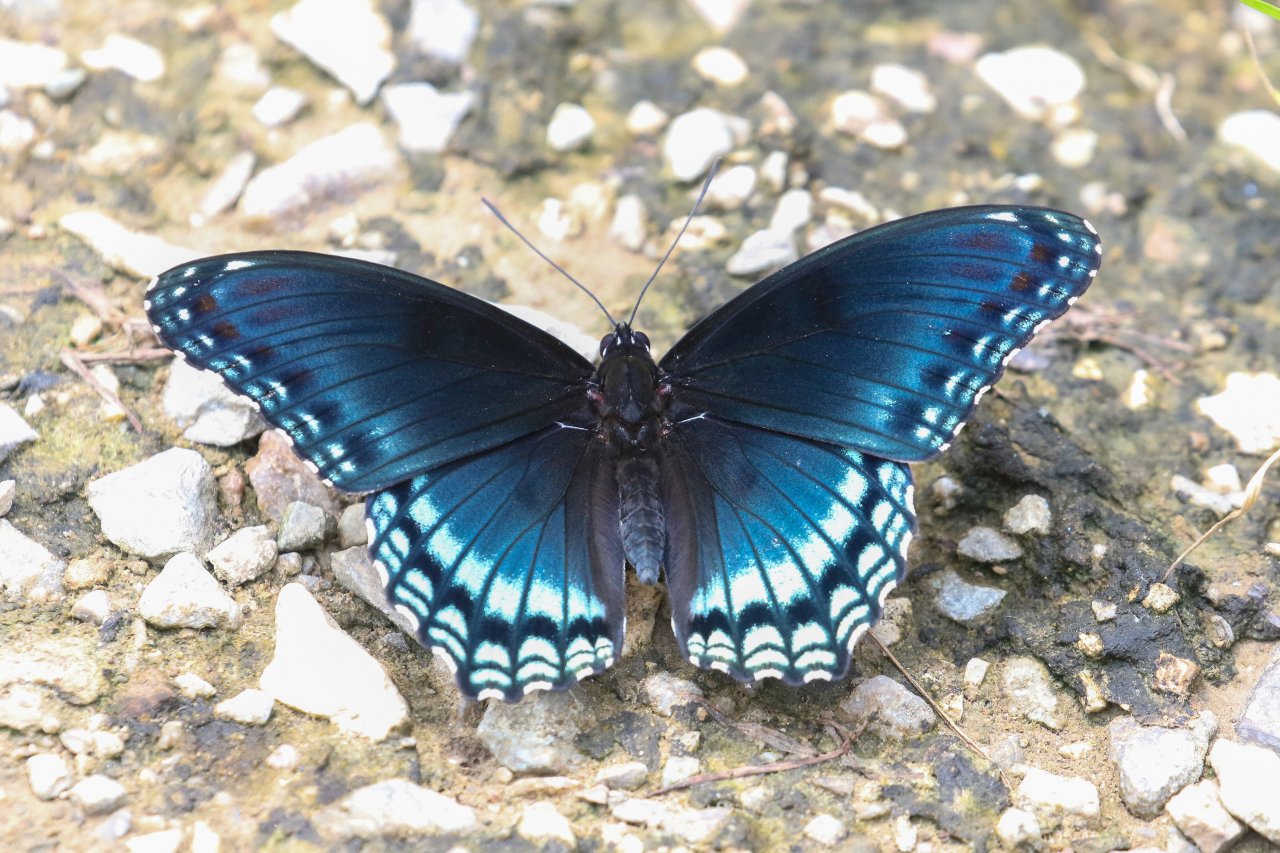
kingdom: Animalia
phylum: Arthropoda
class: Insecta
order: Lepidoptera
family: Nymphalidae
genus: Limenitis
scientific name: Limenitis arthemis
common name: Red-spotted Admiral
